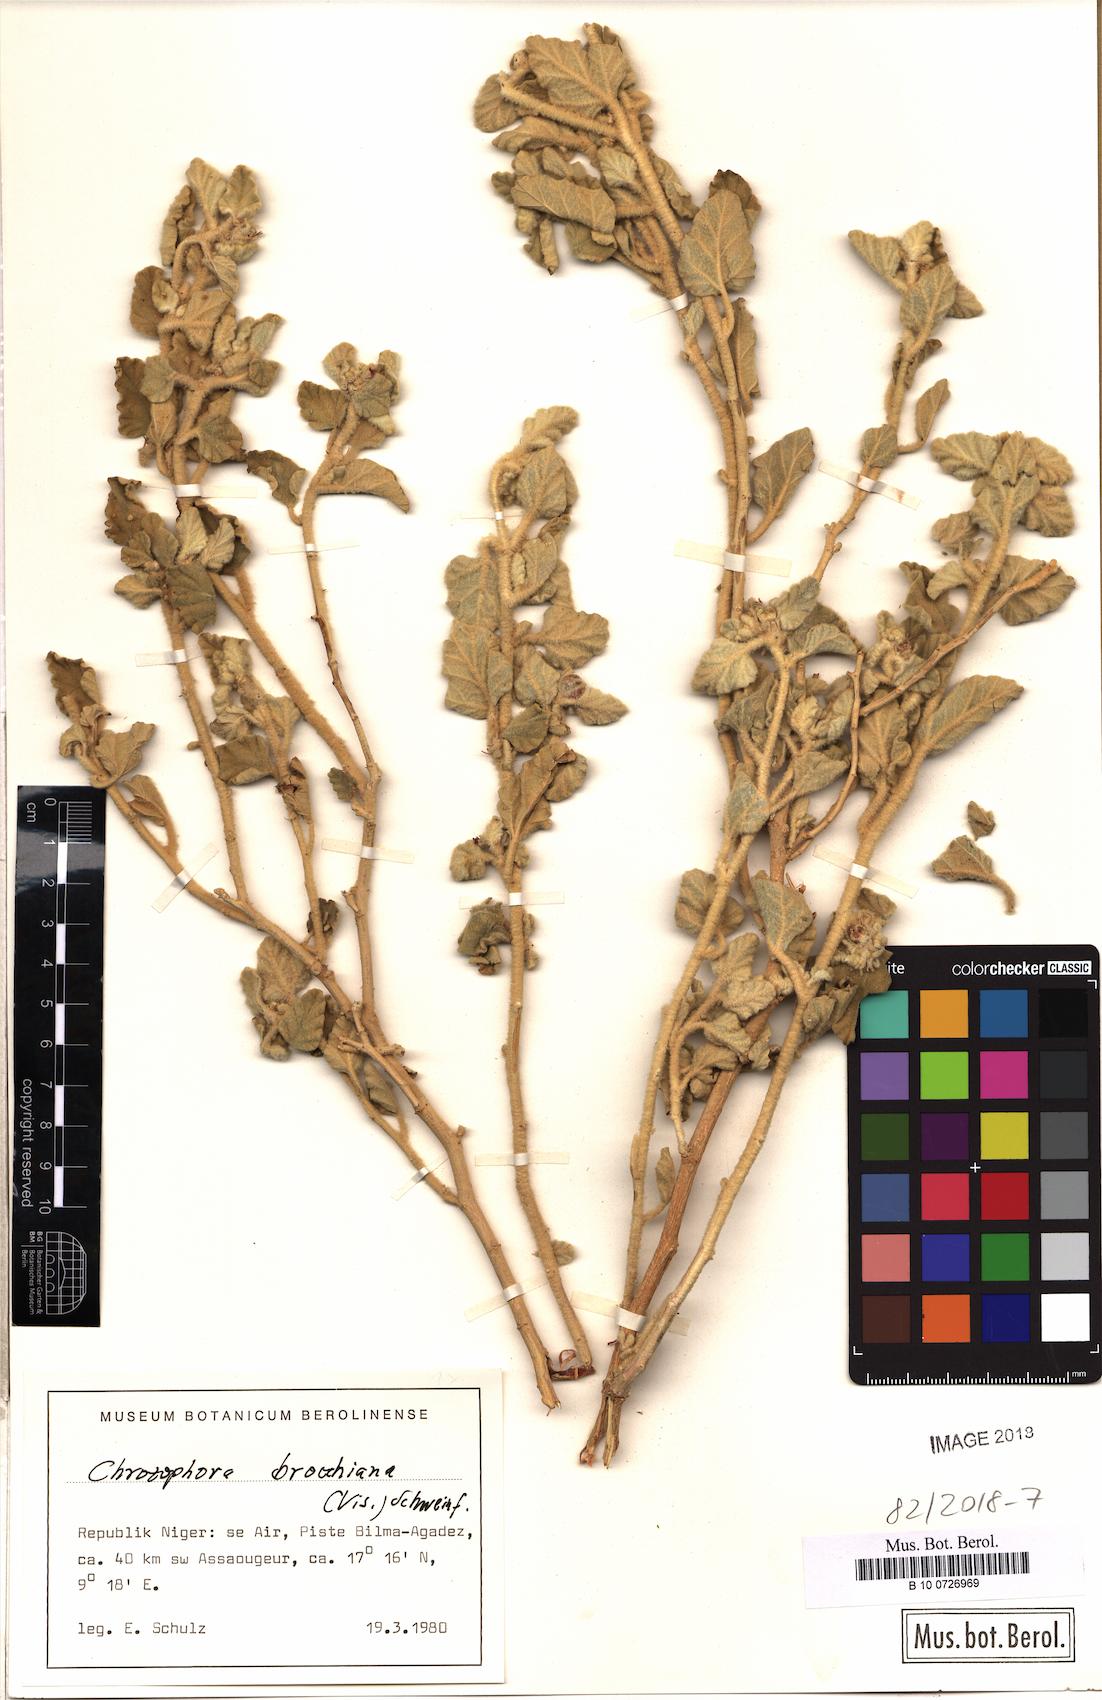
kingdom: Plantae
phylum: Tracheophyta
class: Magnoliopsida
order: Malpighiales
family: Euphorbiaceae
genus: Chrozophora
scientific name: Chrozophora brocchiana
